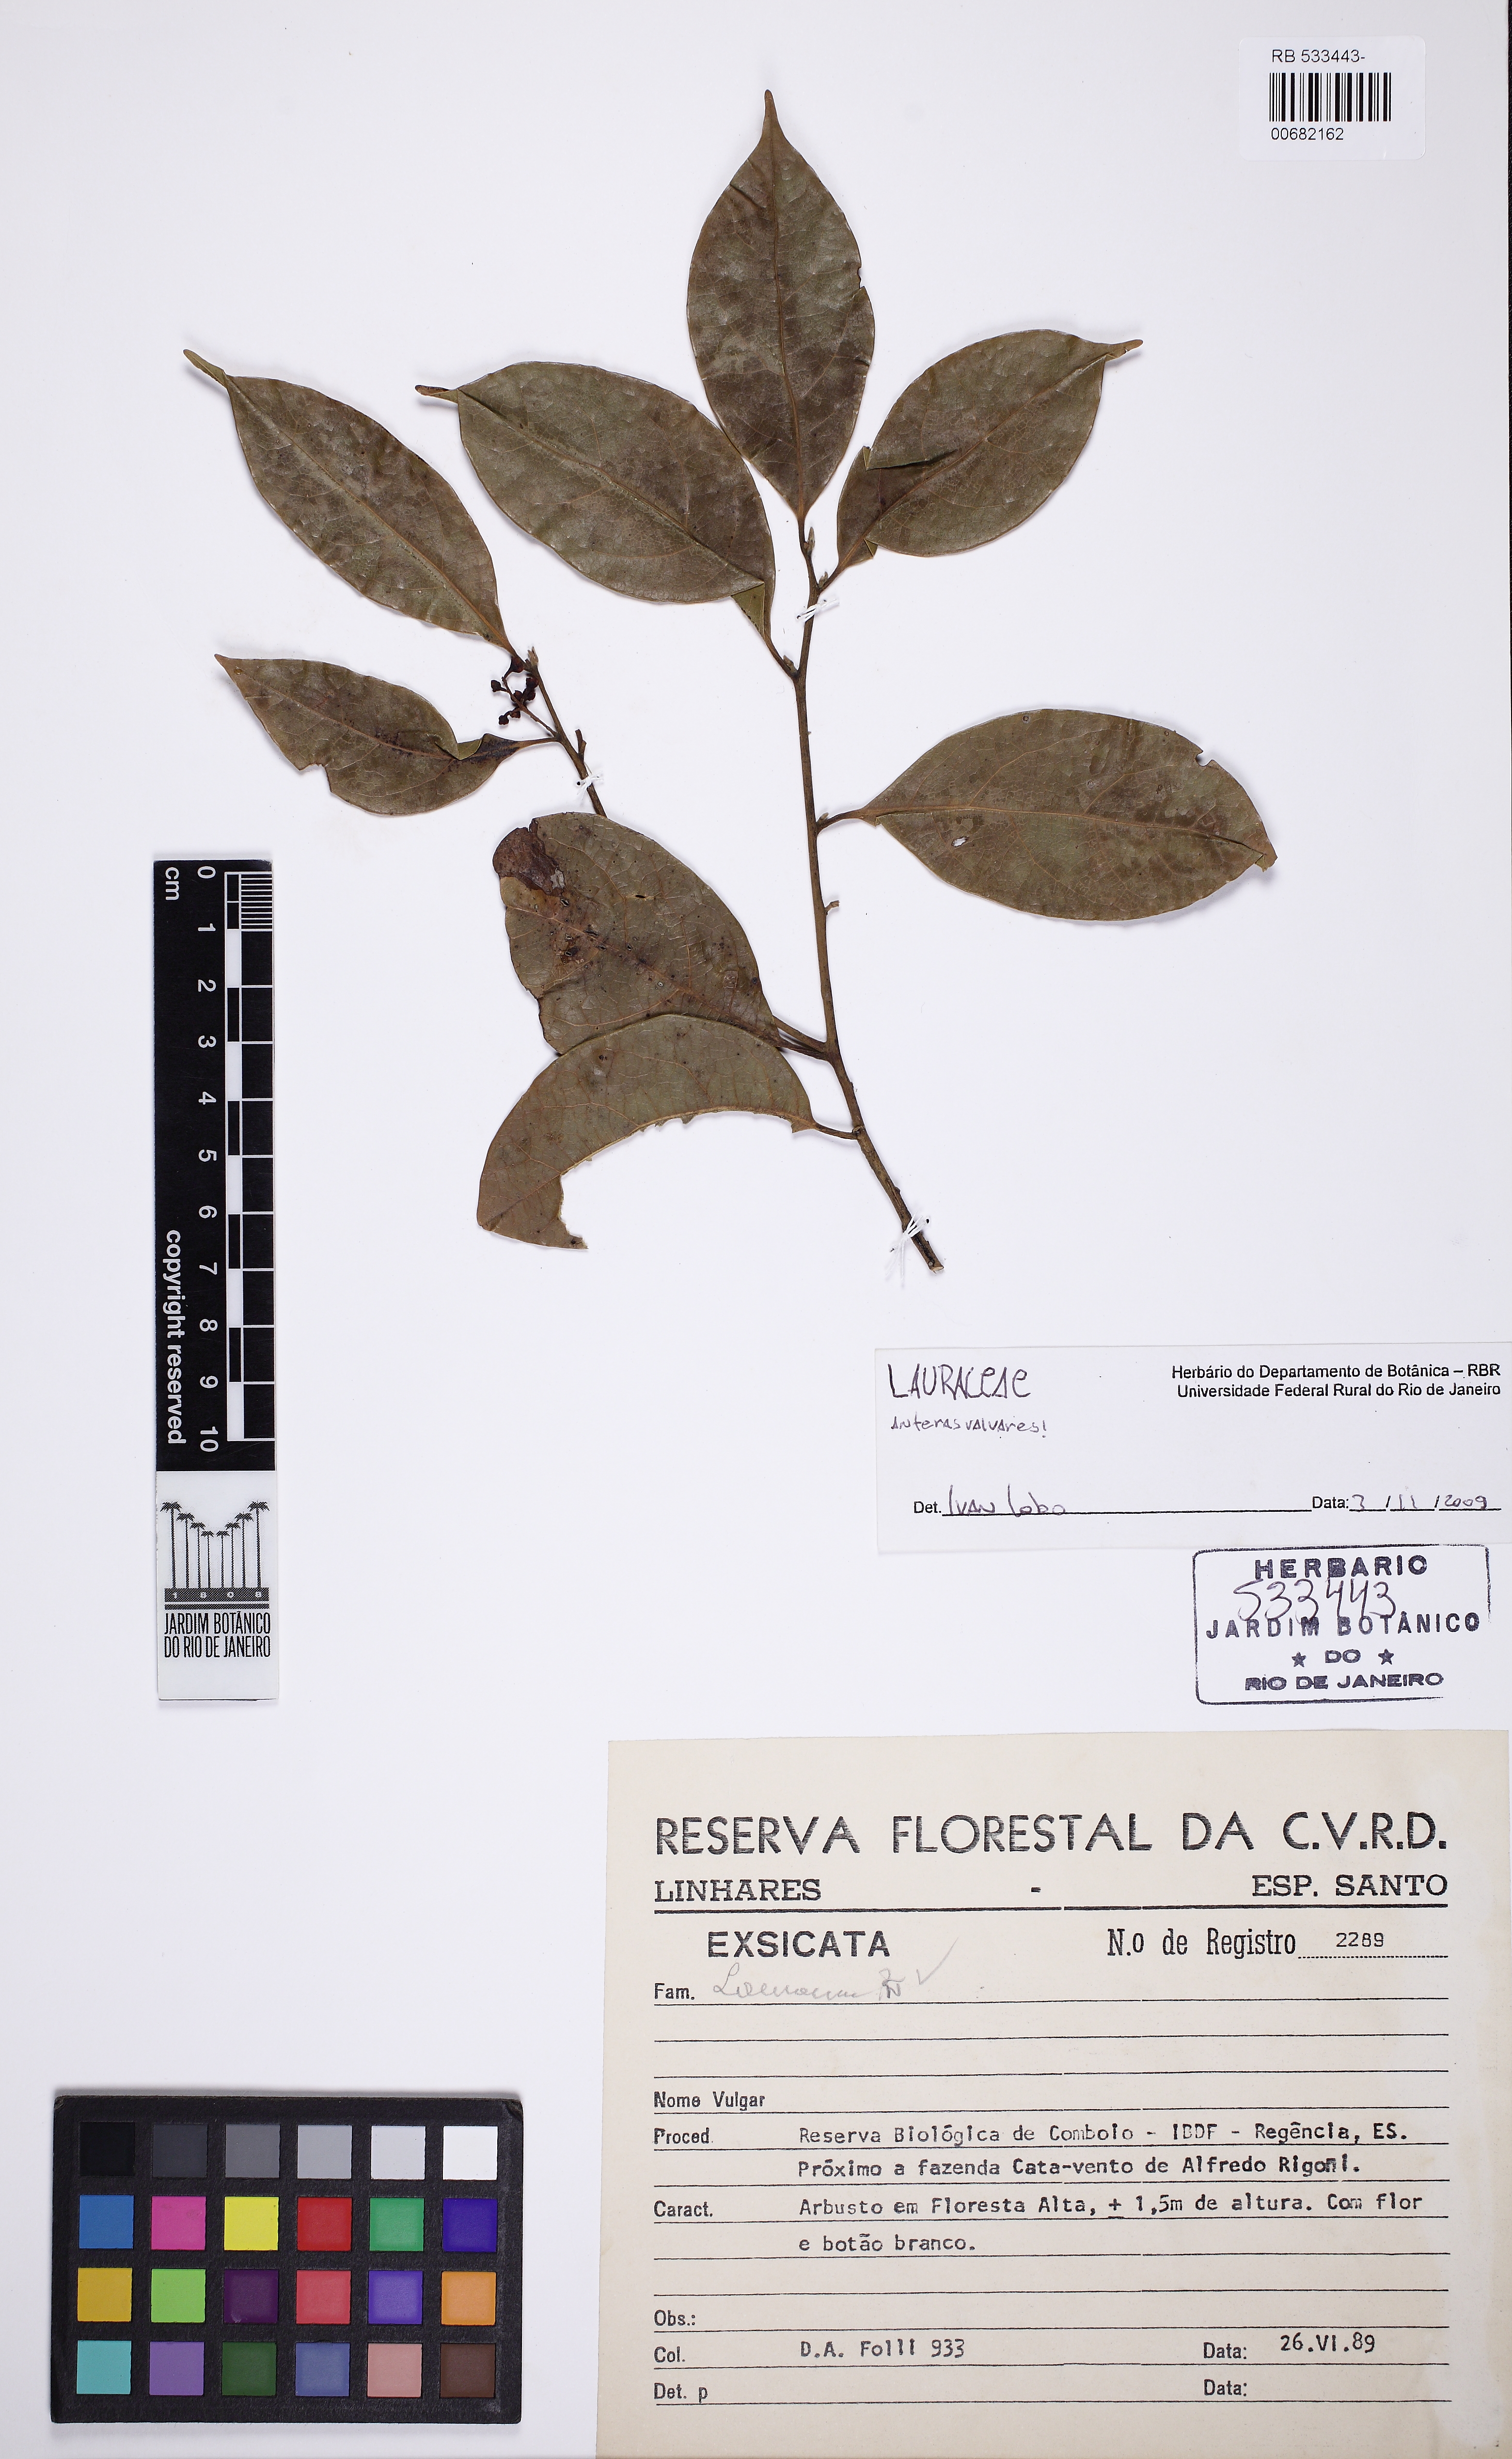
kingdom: Plantae
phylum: Tracheophyta
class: Magnoliopsida
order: Laurales
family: Lauraceae
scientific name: Lauraceae
